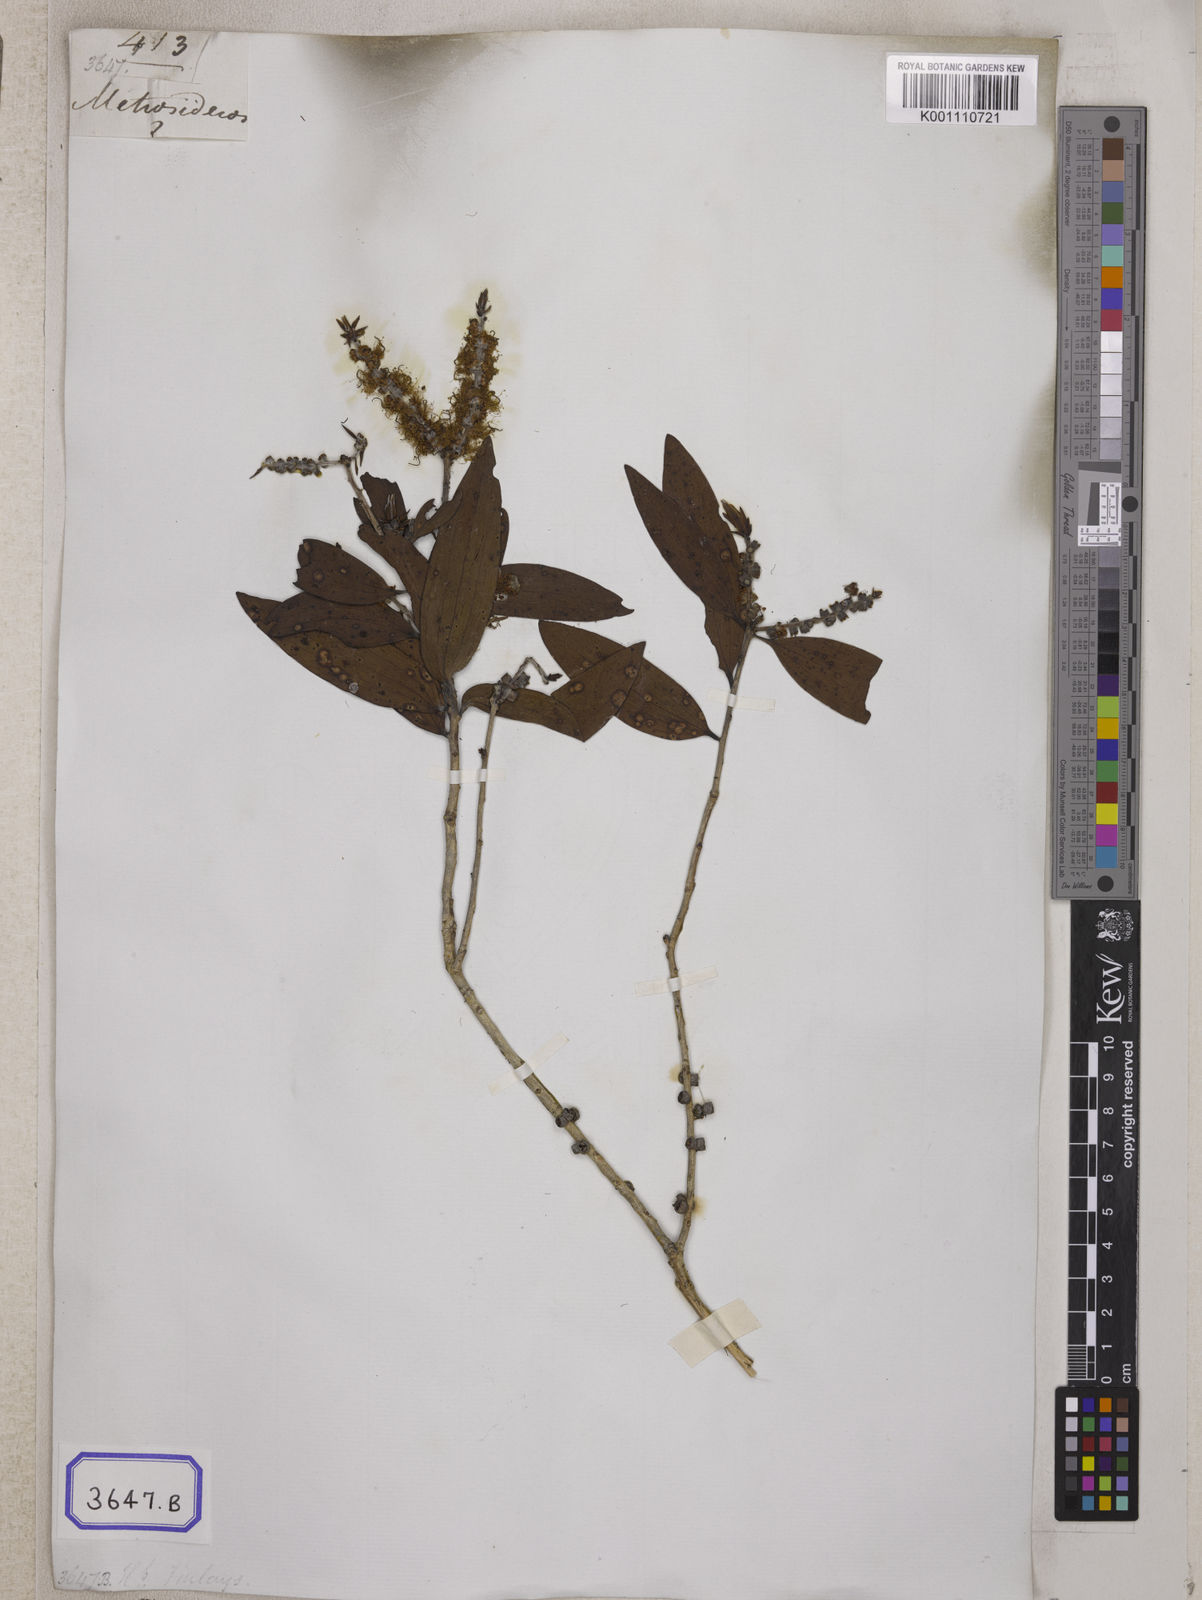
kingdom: Plantae
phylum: Tracheophyta
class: Magnoliopsida
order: Myrtales
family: Myrtaceae
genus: Melaleuca
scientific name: Melaleuca viridiflora
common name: Brown-leaved paperbark
